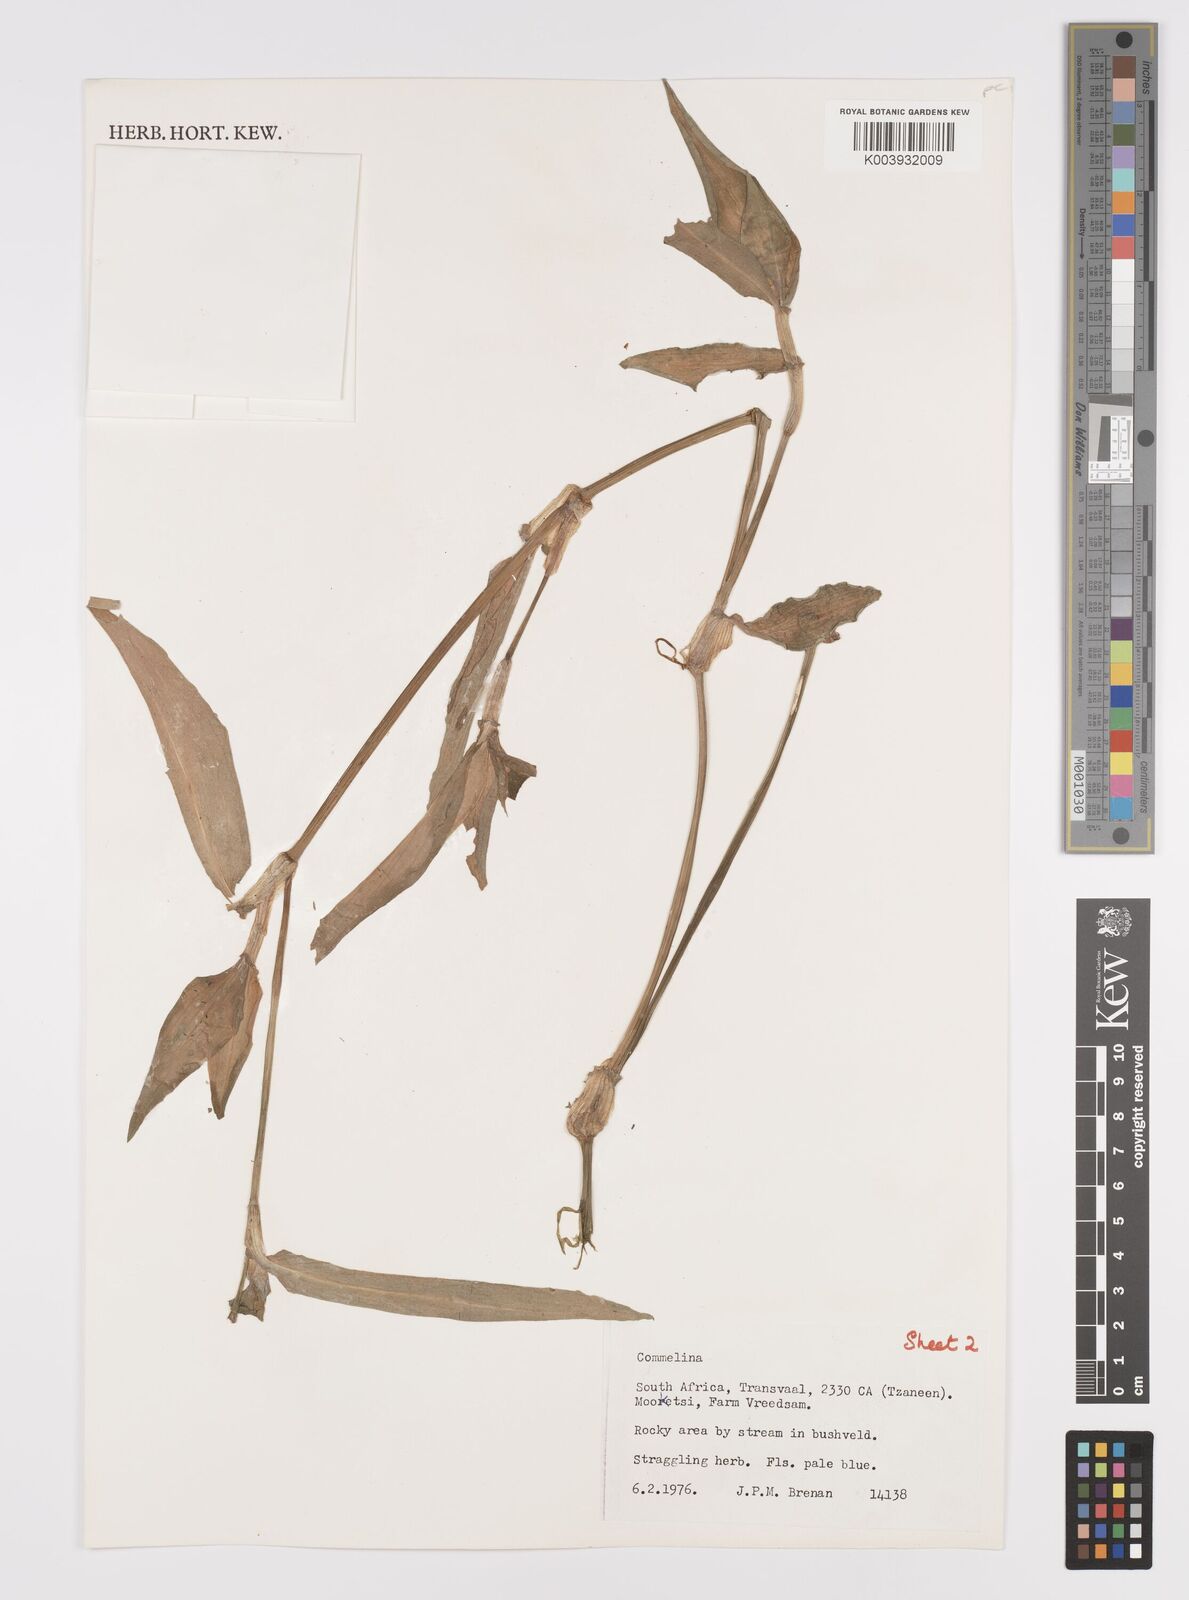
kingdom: Plantae
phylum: Tracheophyta
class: Liliopsida
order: Commelinales
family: Commelinaceae
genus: Commelina
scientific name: Commelina bracteosa
